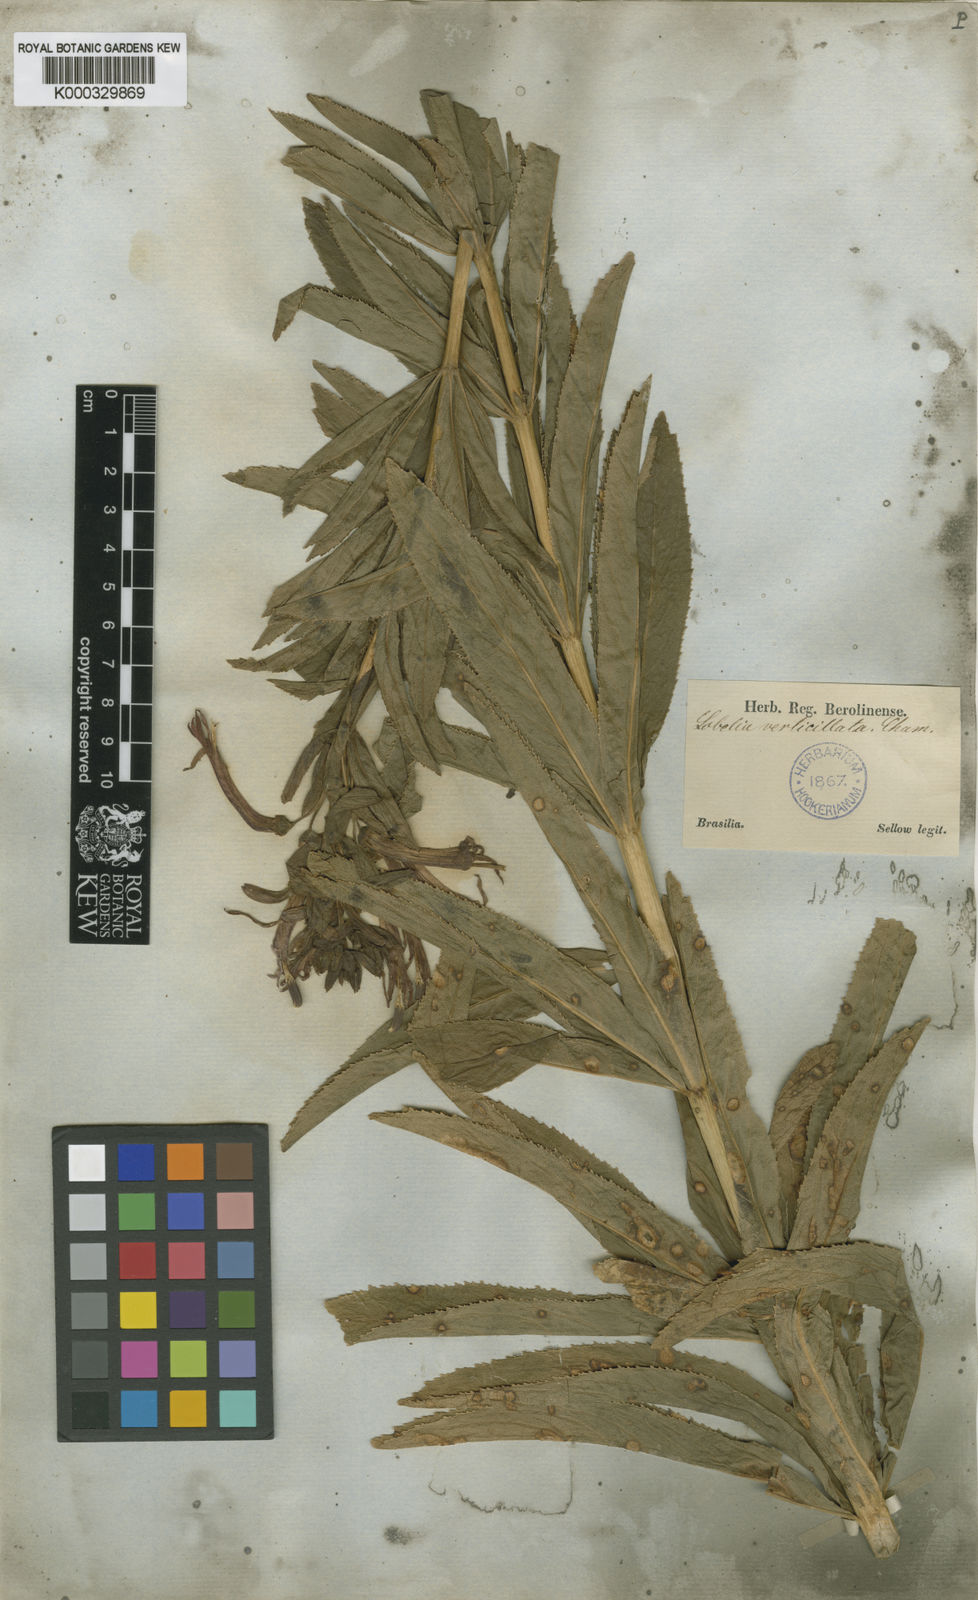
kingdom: Plantae
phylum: Tracheophyta
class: Magnoliopsida
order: Asterales
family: Campanulaceae
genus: Siphocampylus
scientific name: Siphocampylus verticillatus
